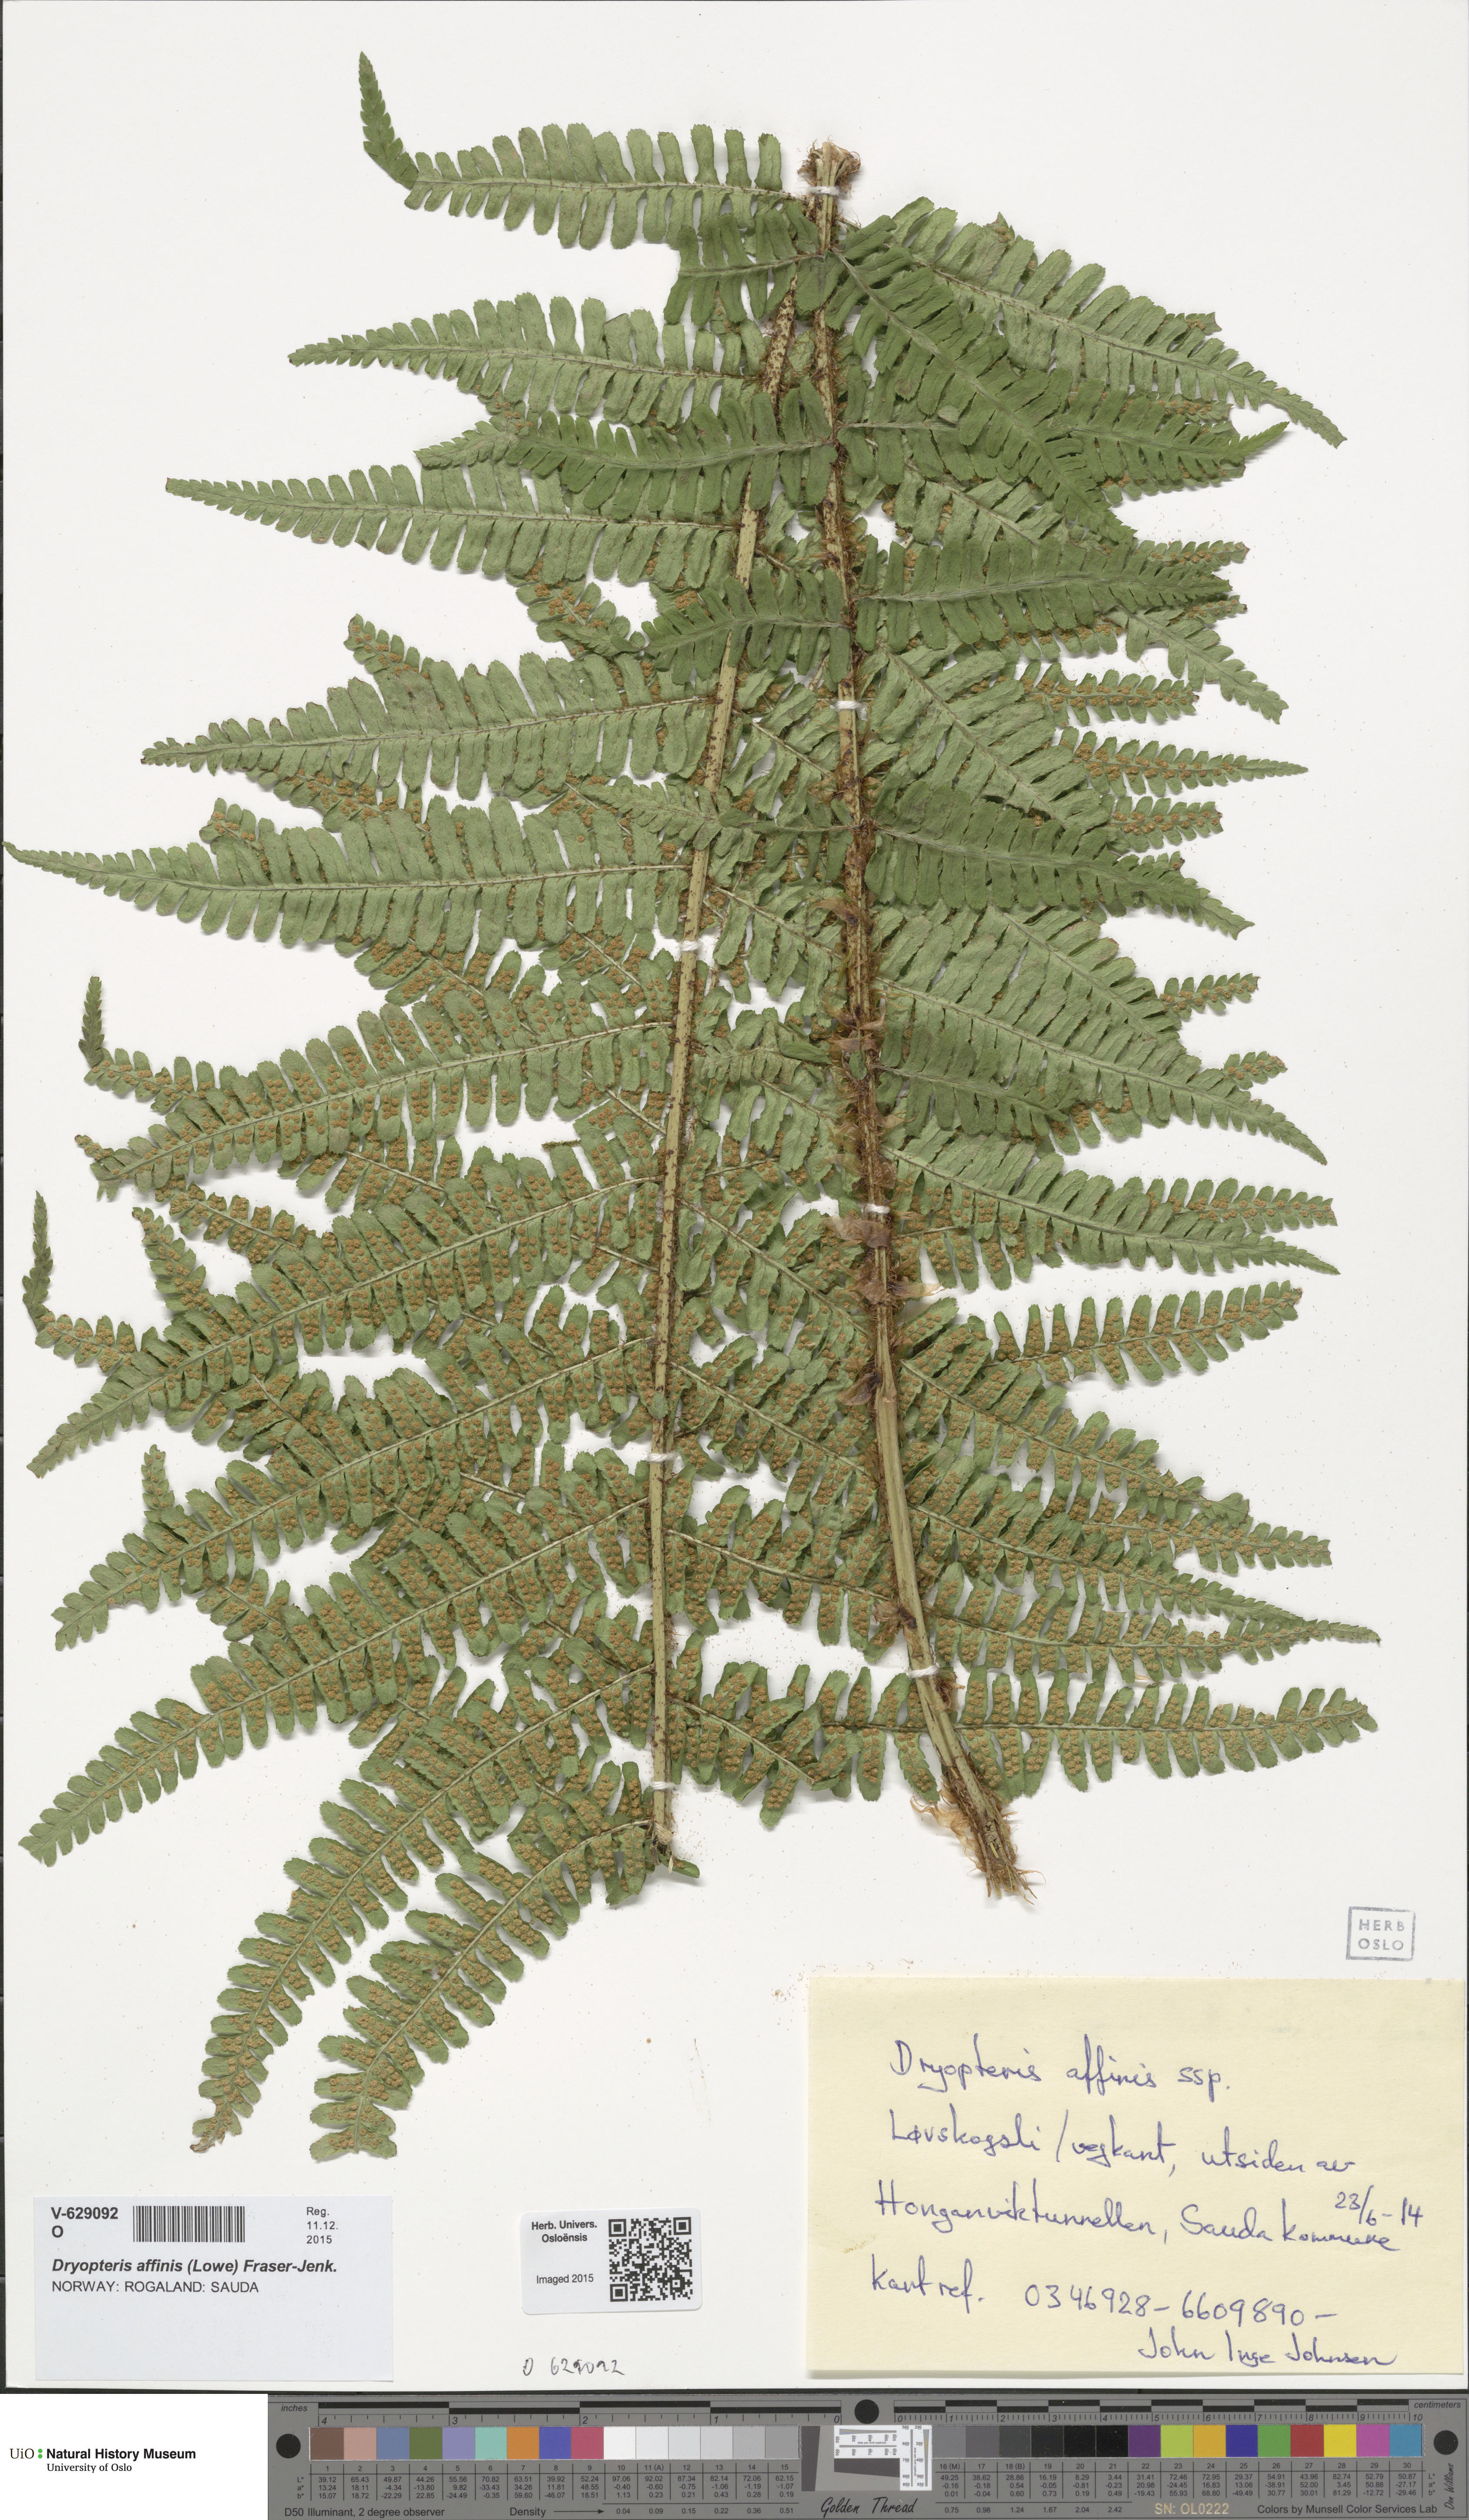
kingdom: Plantae
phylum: Tracheophyta
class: Polypodiopsida
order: Polypodiales
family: Dryopteridaceae
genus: Dryopteris
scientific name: Dryopteris affinis
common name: Scaly male fern
